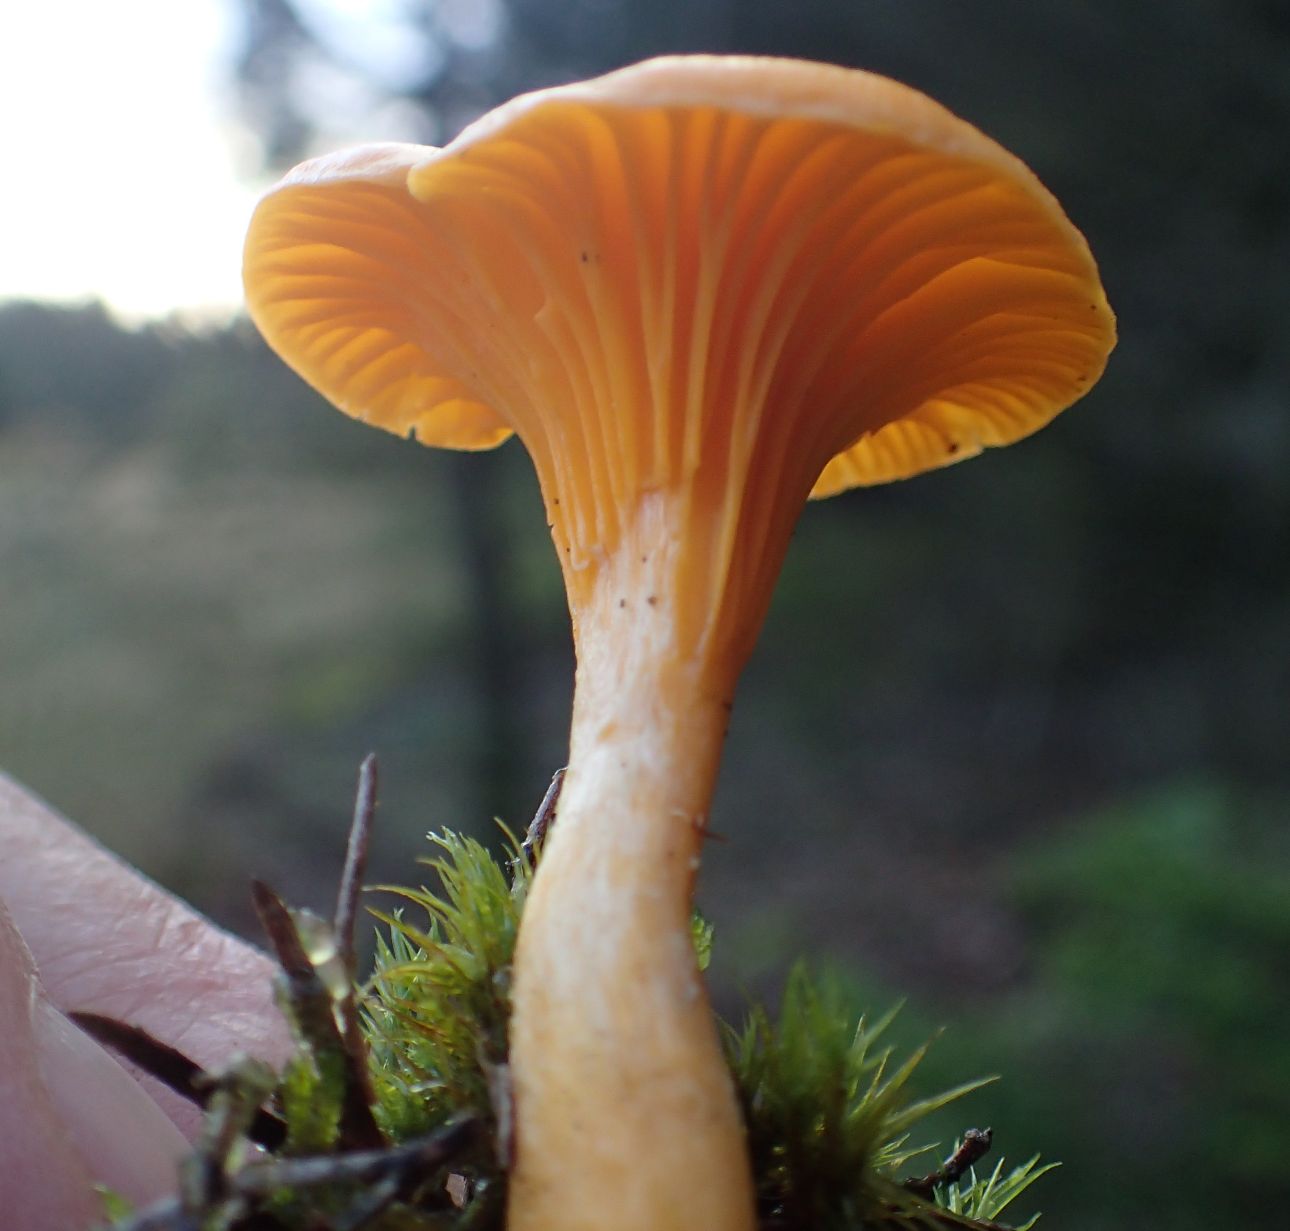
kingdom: Fungi
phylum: Basidiomycota
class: Agaricomycetes
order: Cantharellales
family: Hydnaceae
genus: Cantharellus
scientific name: Cantharellus cibarius
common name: almindelig kantarel
